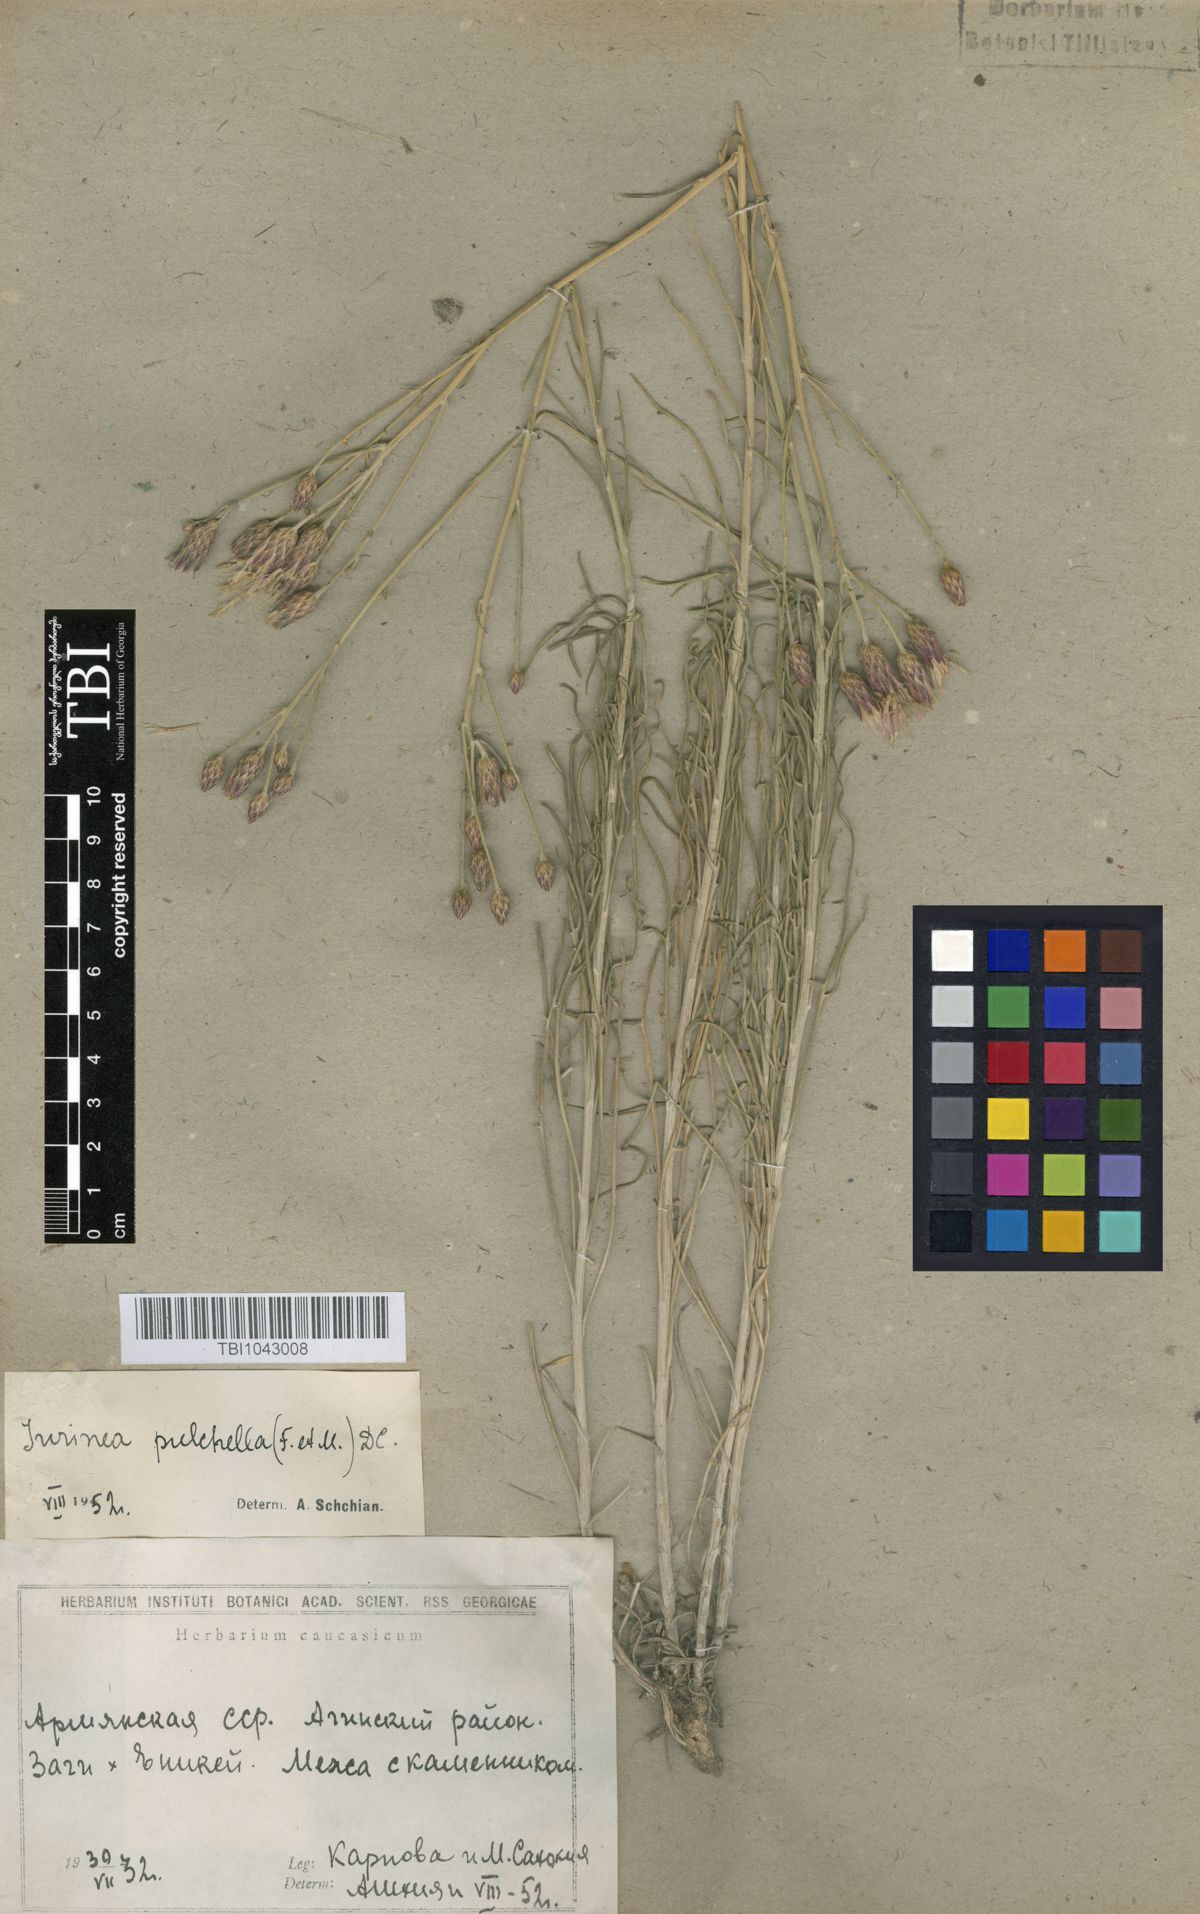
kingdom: Plantae
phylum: Tracheophyta
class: Magnoliopsida
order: Asterales
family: Asteraceae
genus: Jurinea
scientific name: Jurinea pulchella
